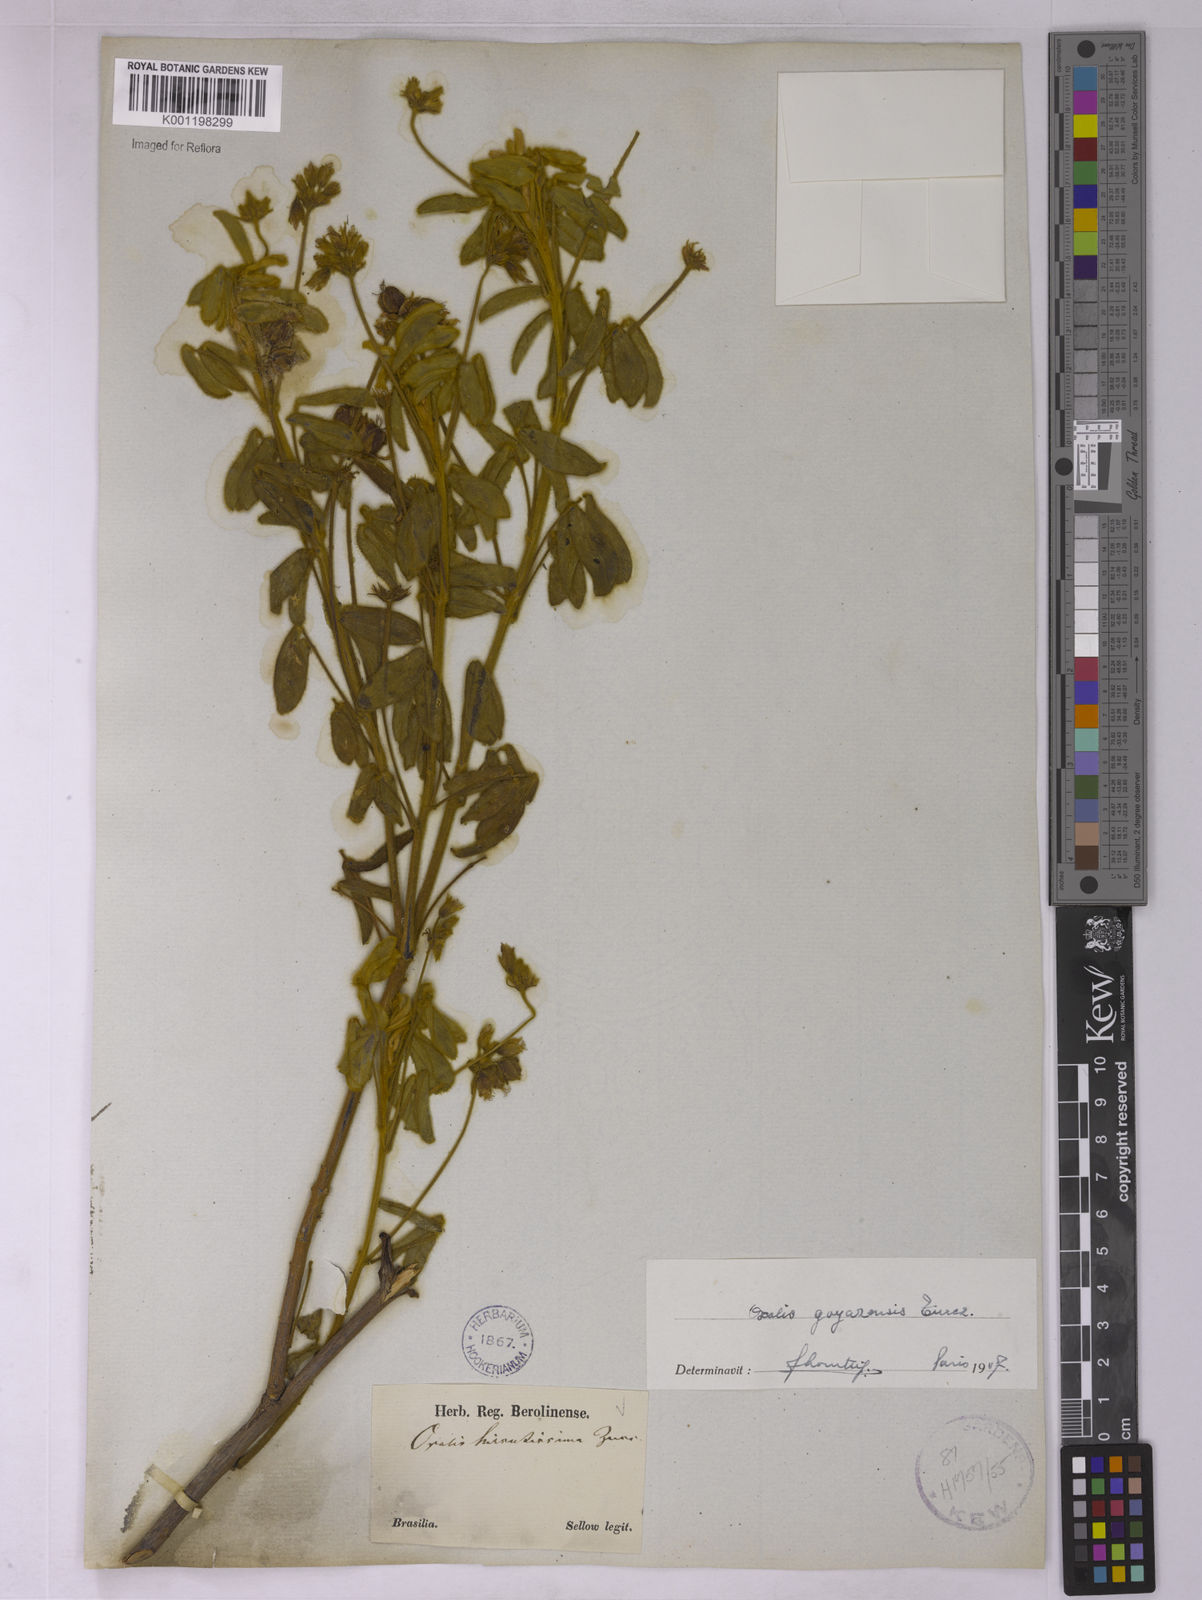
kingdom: Plantae
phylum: Tracheophyta
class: Magnoliopsida
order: Oxalidales
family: Oxalidaceae
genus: Oxalis
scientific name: Oxalis goyazensis
